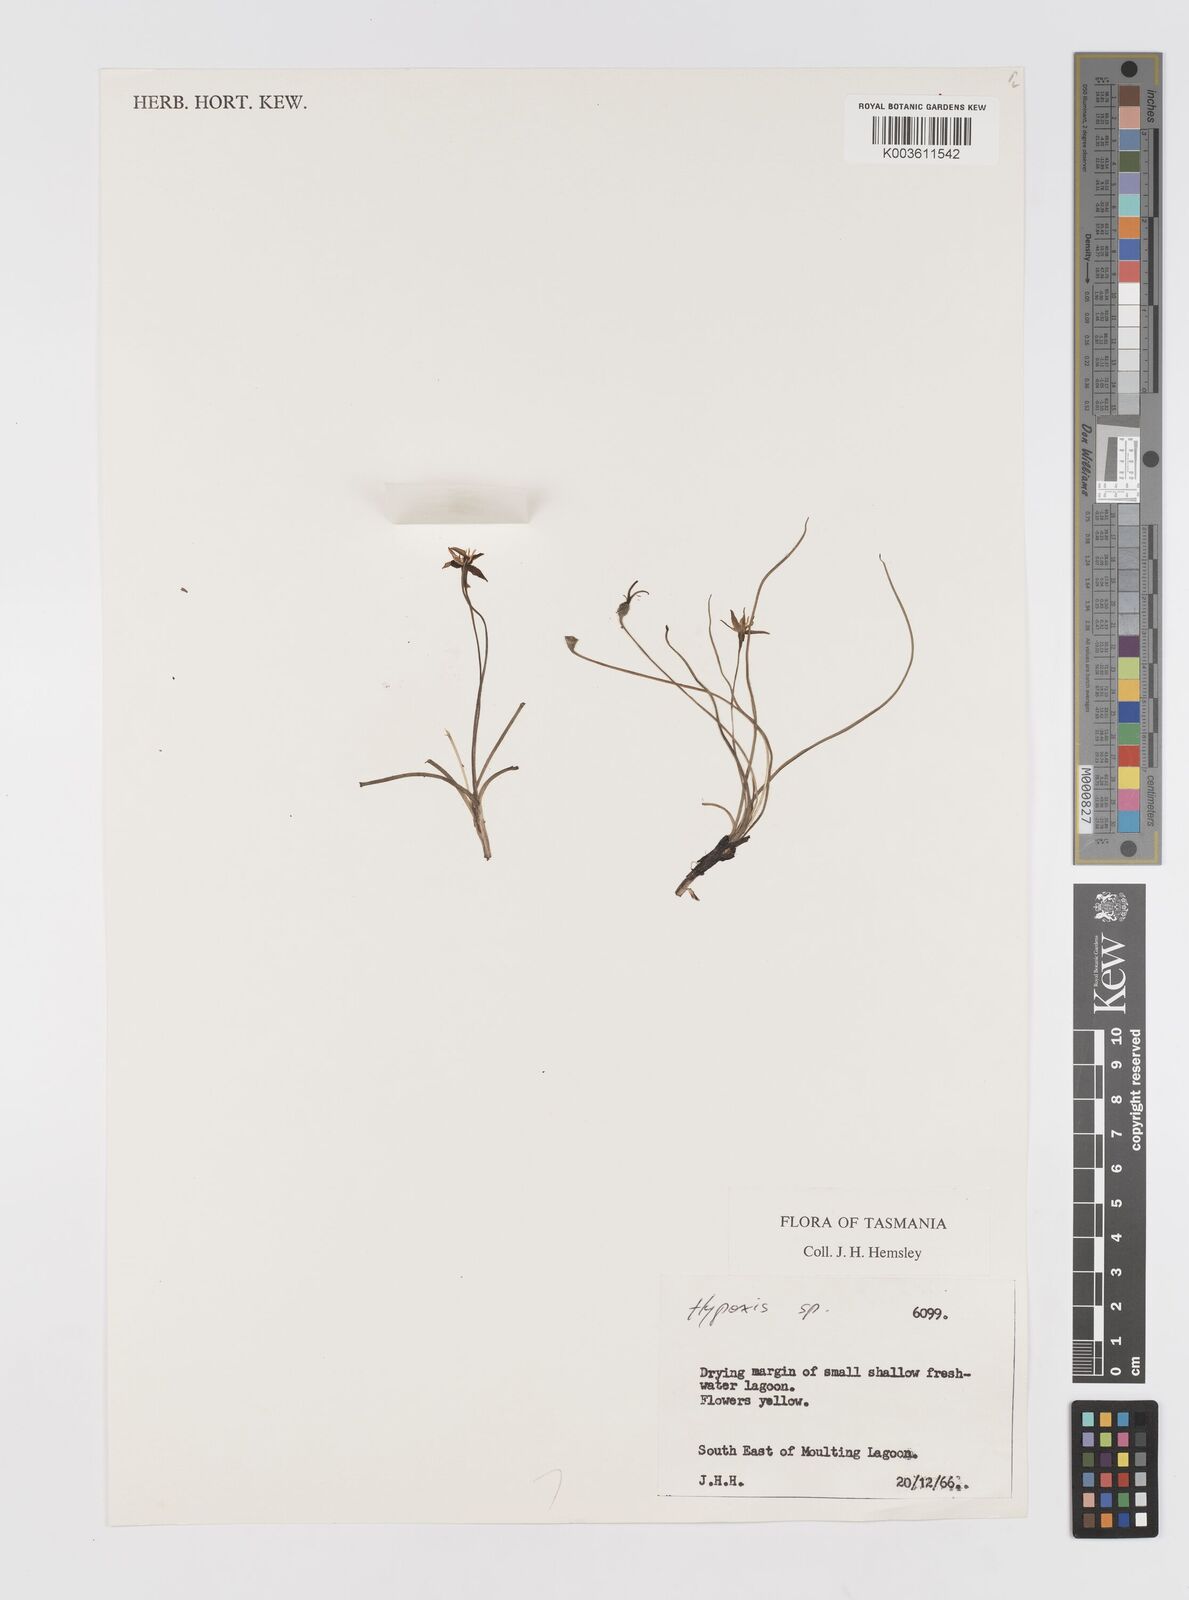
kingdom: Plantae
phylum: Tracheophyta
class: Liliopsida
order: Asparagales
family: Hypoxidaceae
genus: Hypoxis
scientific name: Hypoxis
